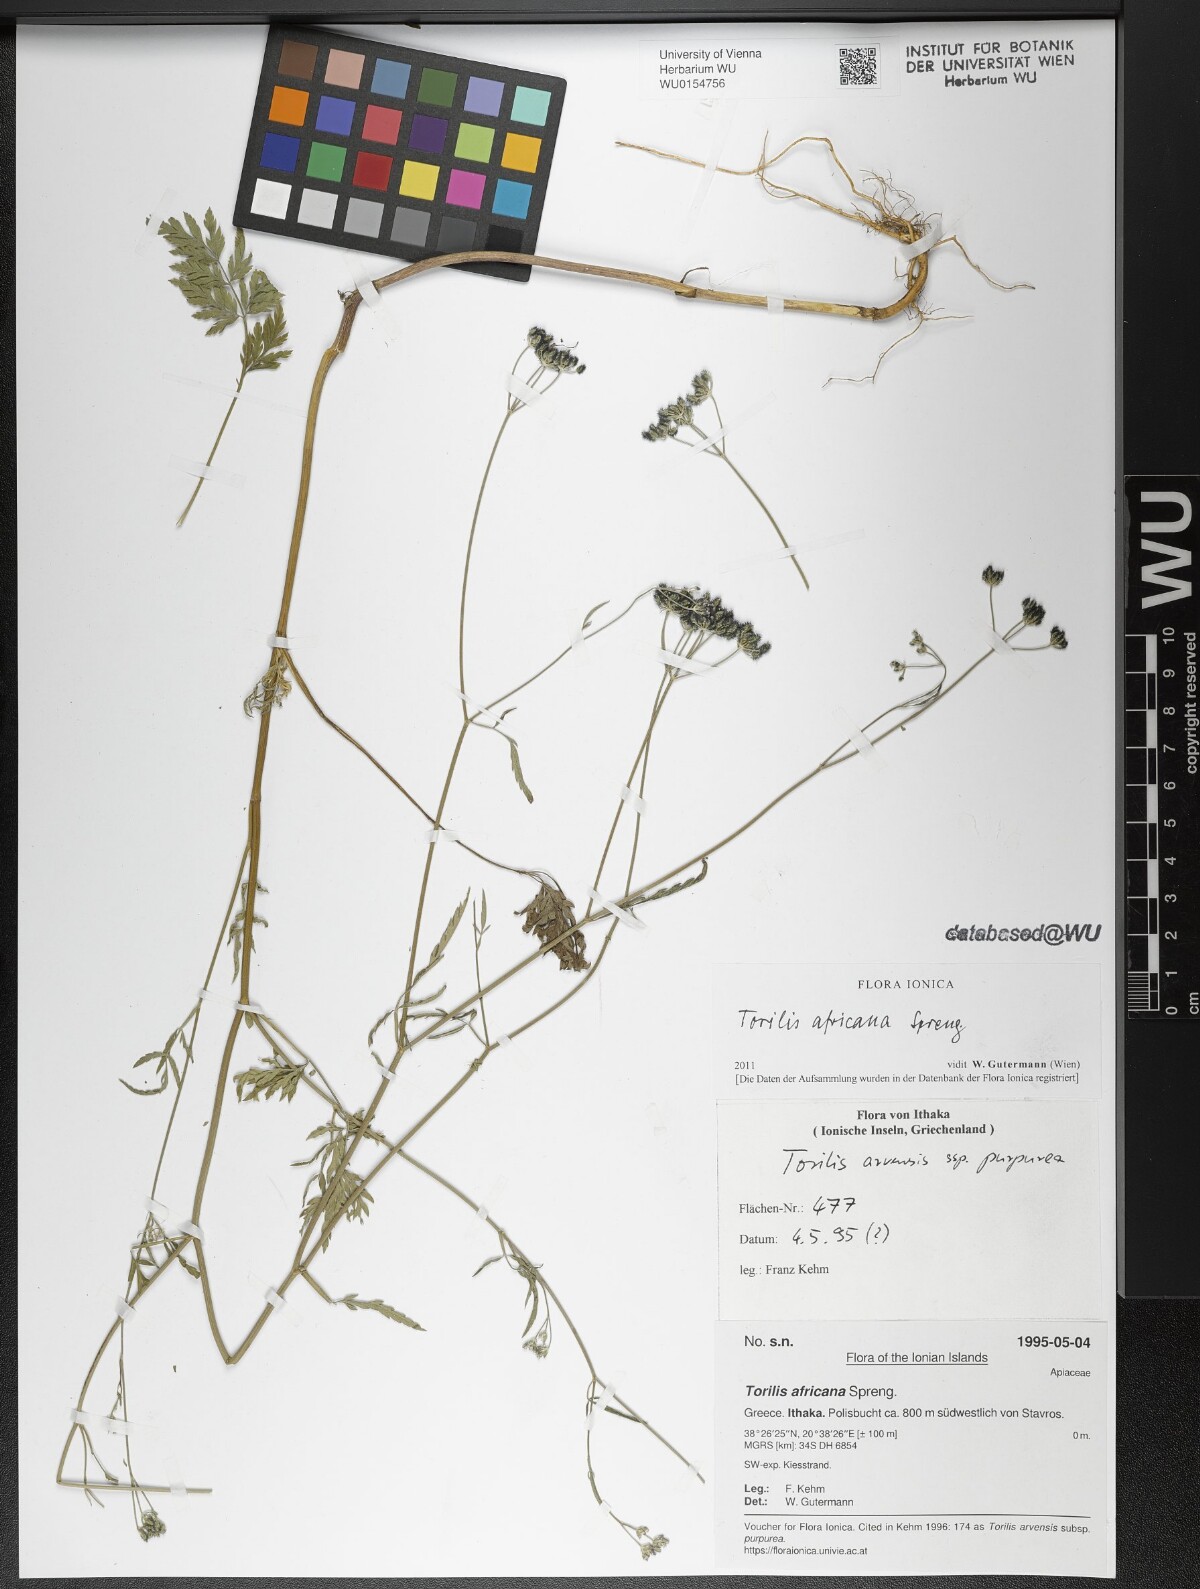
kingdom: Plantae
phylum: Tracheophyta
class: Magnoliopsida
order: Apiales
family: Apiaceae
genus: Torilis
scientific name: Torilis africana
